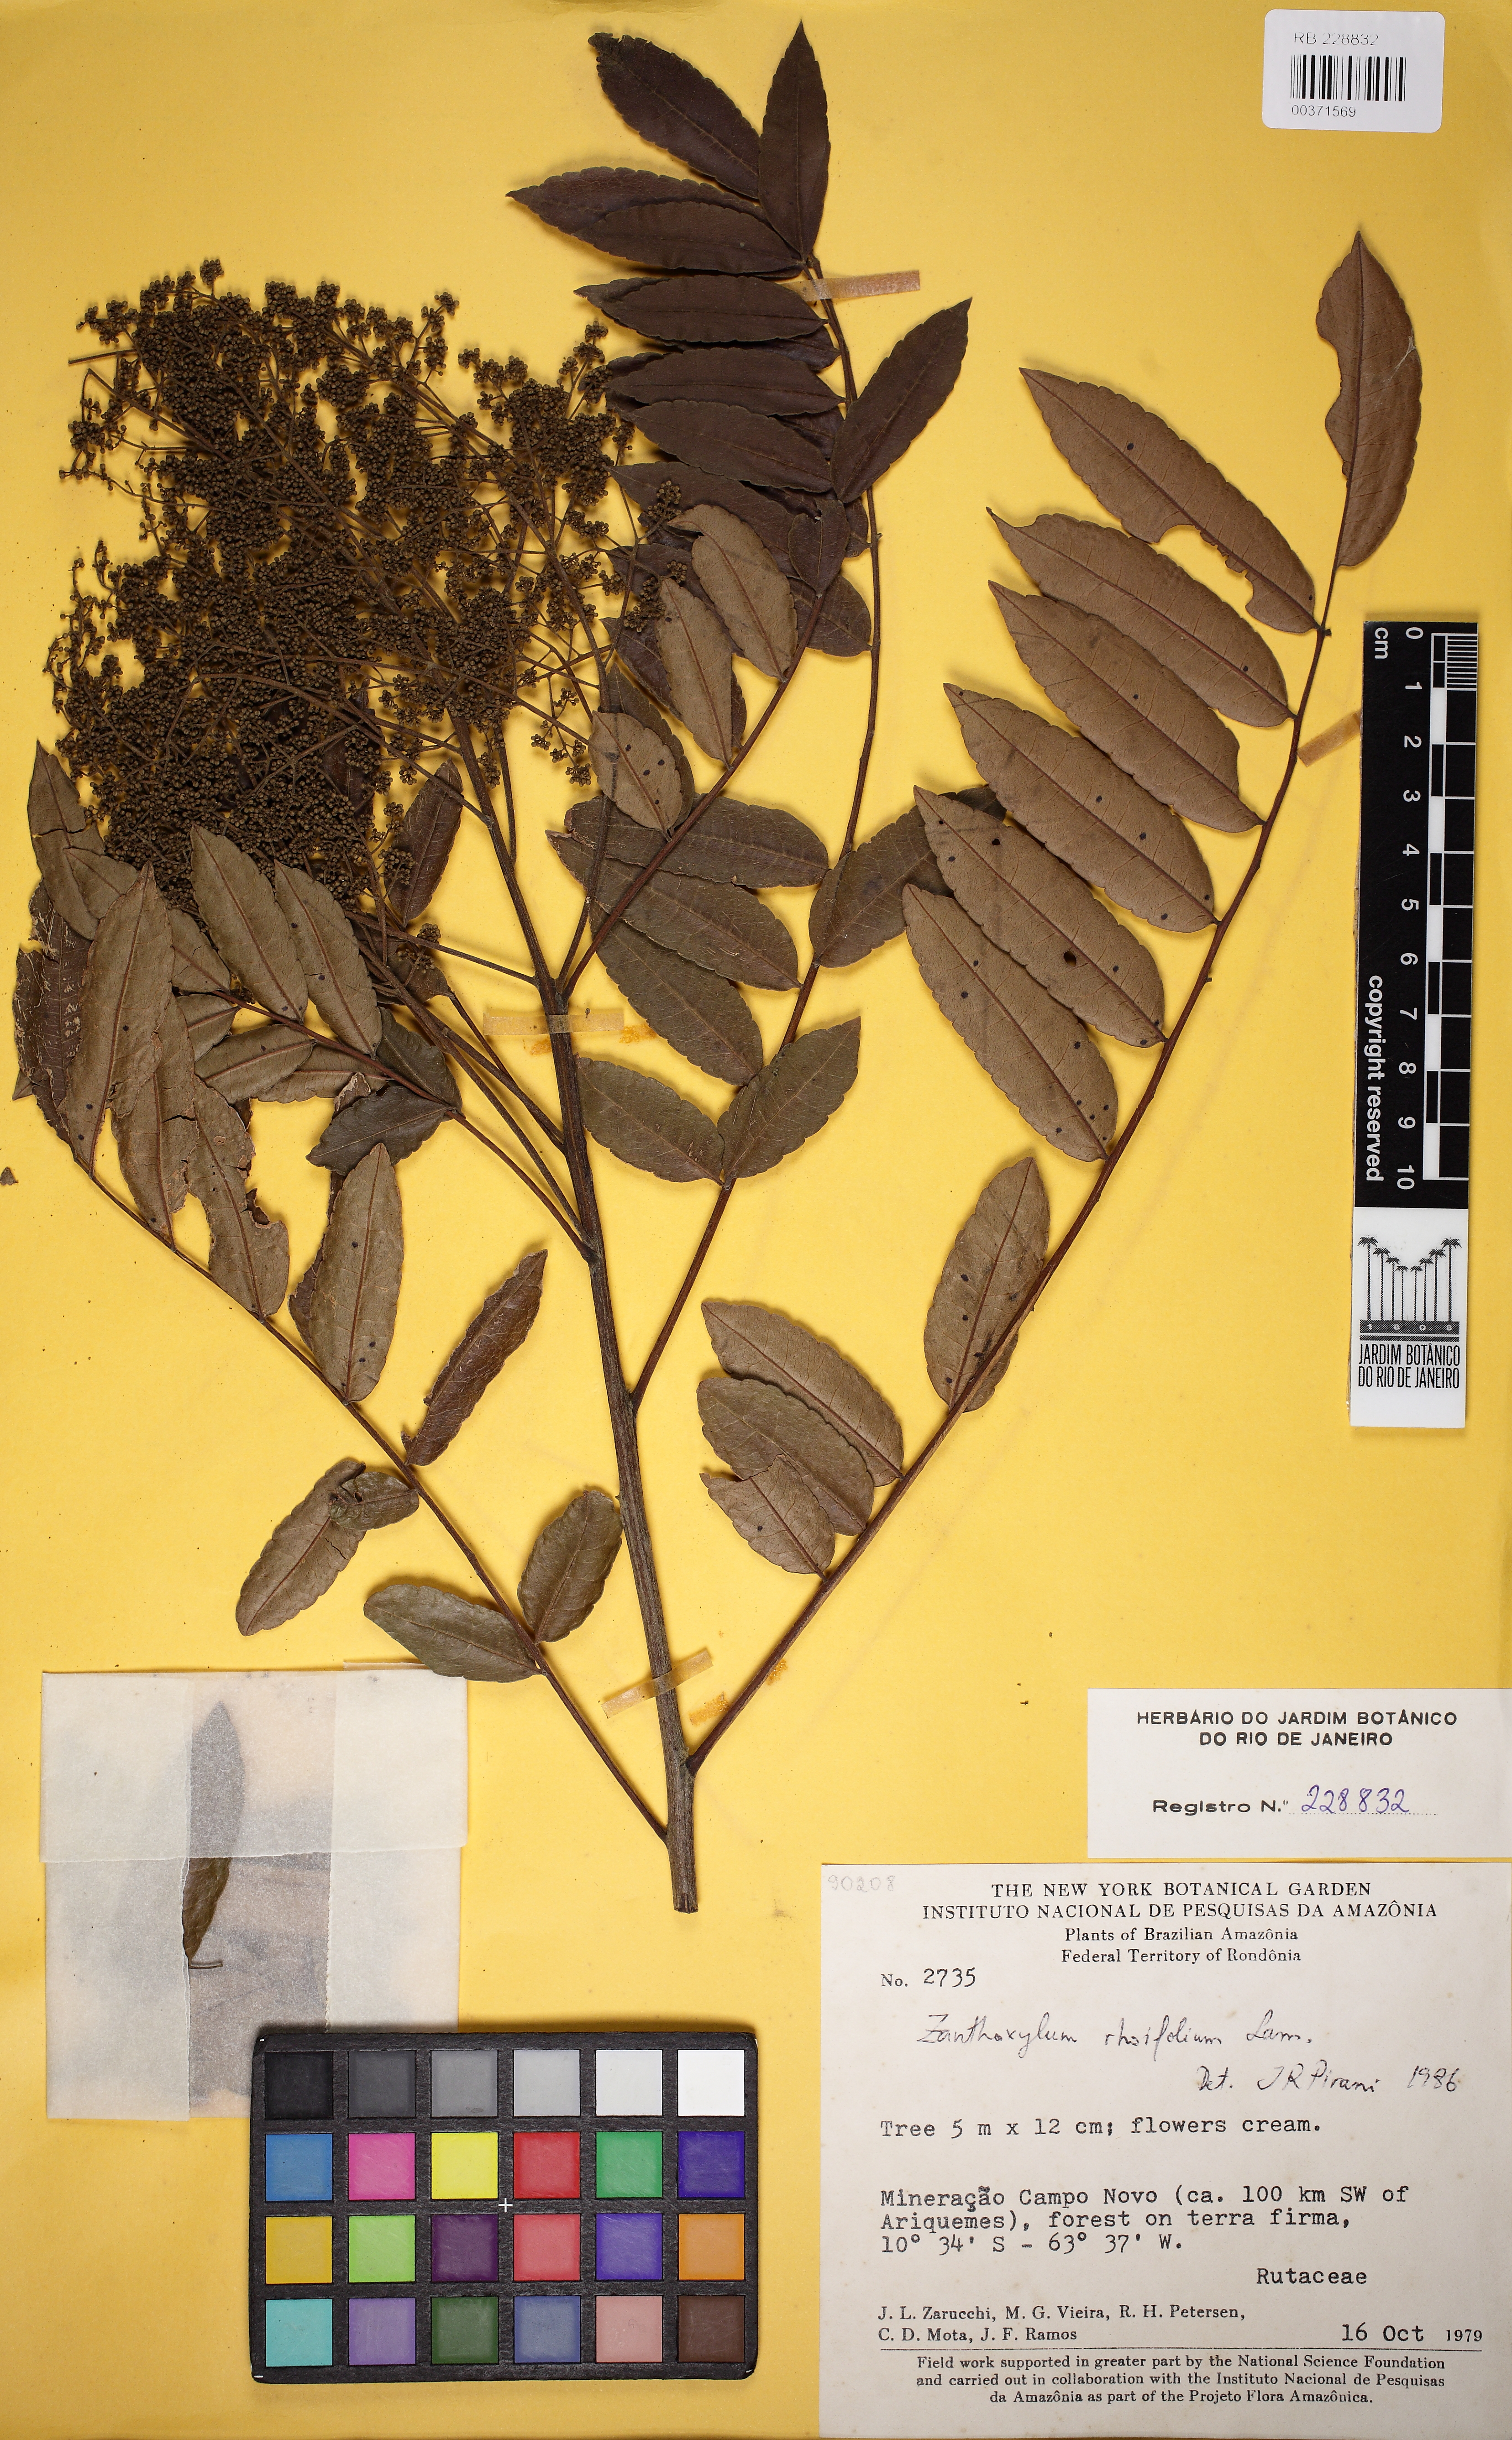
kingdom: Plantae
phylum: Tracheophyta
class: Magnoliopsida
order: Sapindales
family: Rutaceae
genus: Zanthoxylum
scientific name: Zanthoxylum rhoifolium
